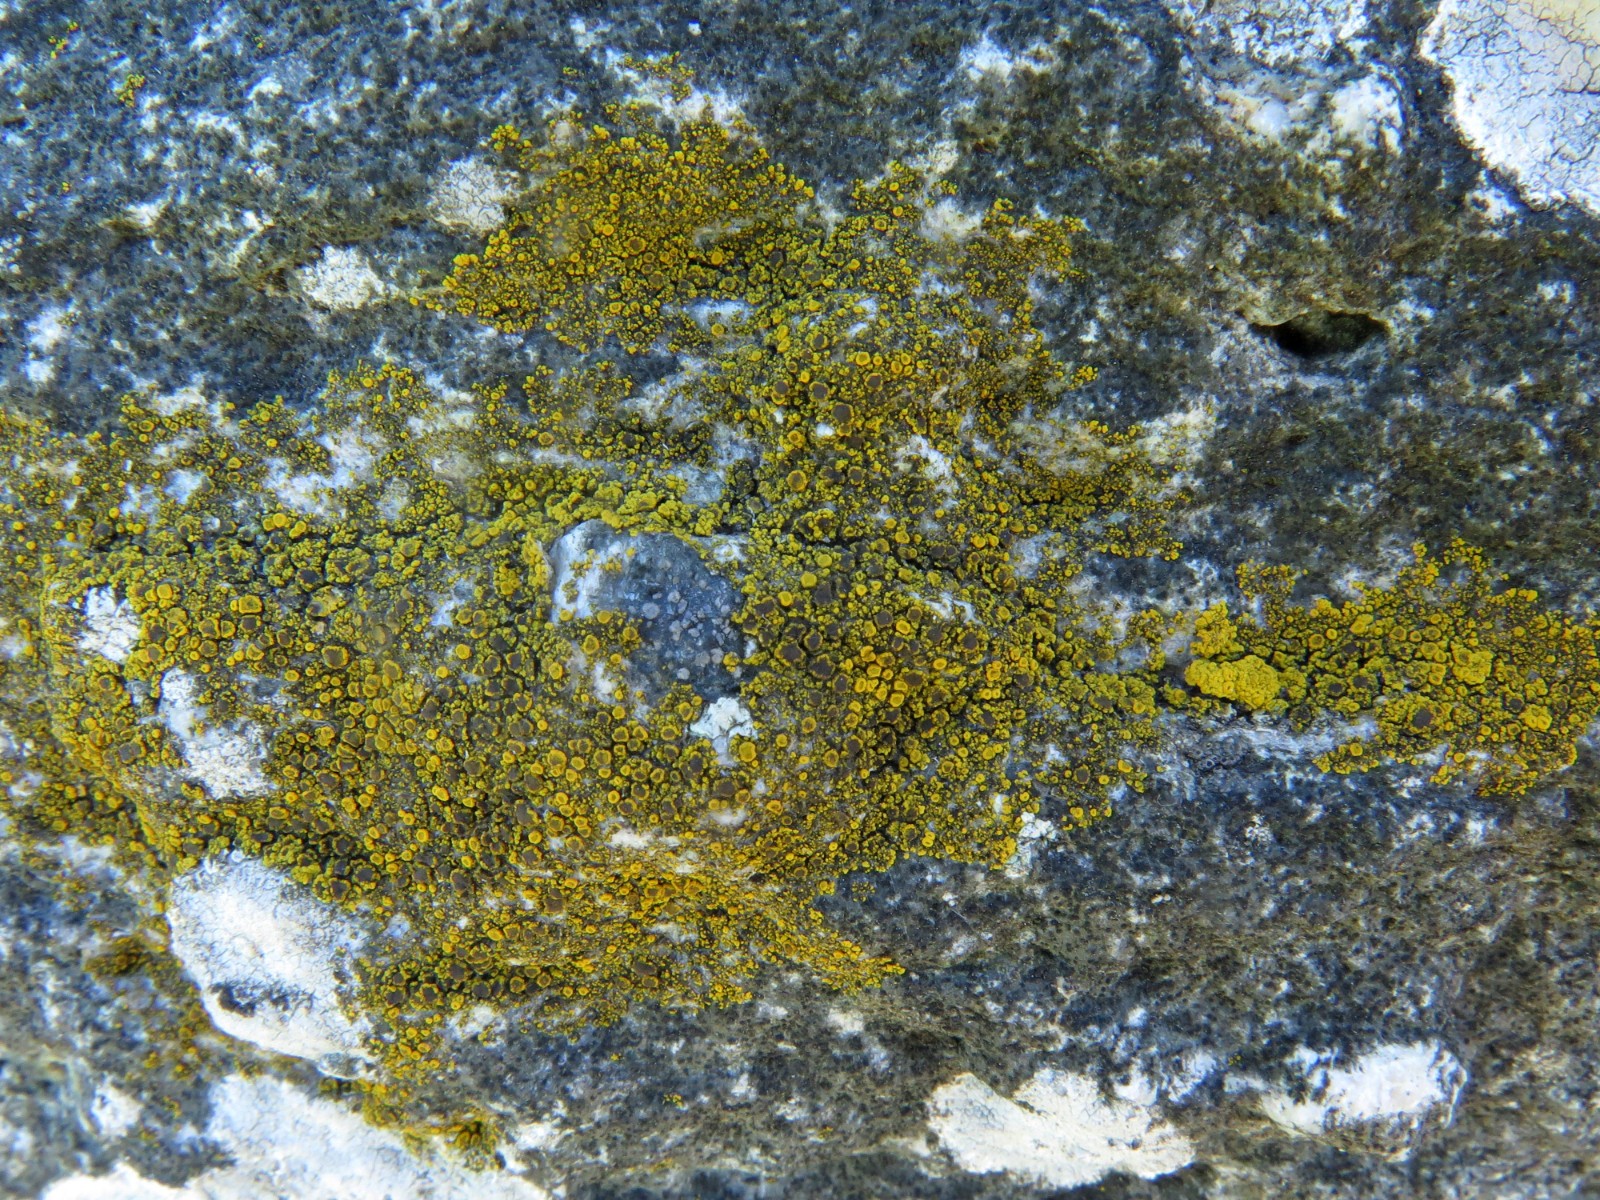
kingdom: Fungi
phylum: Ascomycota
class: Candelariomycetes
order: Candelariales
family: Candelariaceae
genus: Candelariella
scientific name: Candelariella vitellina
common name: almindelig æggeblommelav
